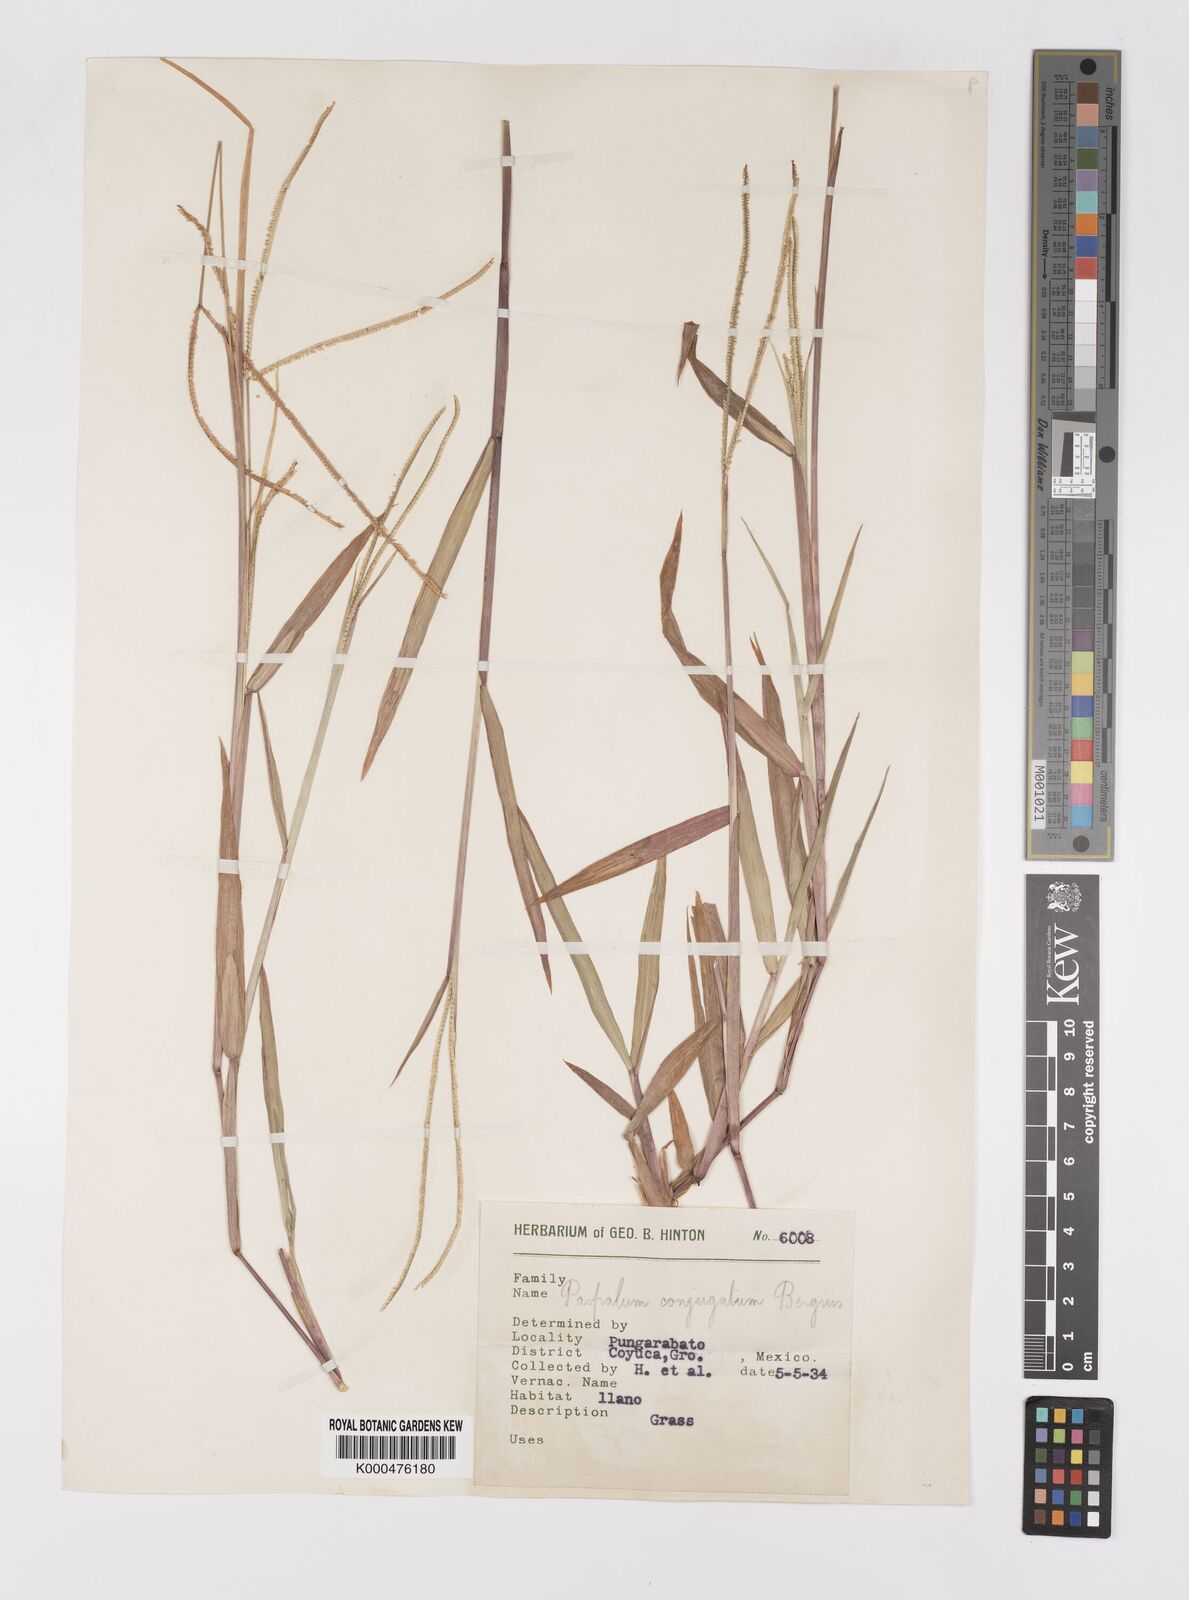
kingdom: Plantae
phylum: Tracheophyta
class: Liliopsida
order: Poales
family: Poaceae
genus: Paspalum
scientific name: Paspalum conjugatum
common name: Hilograss
